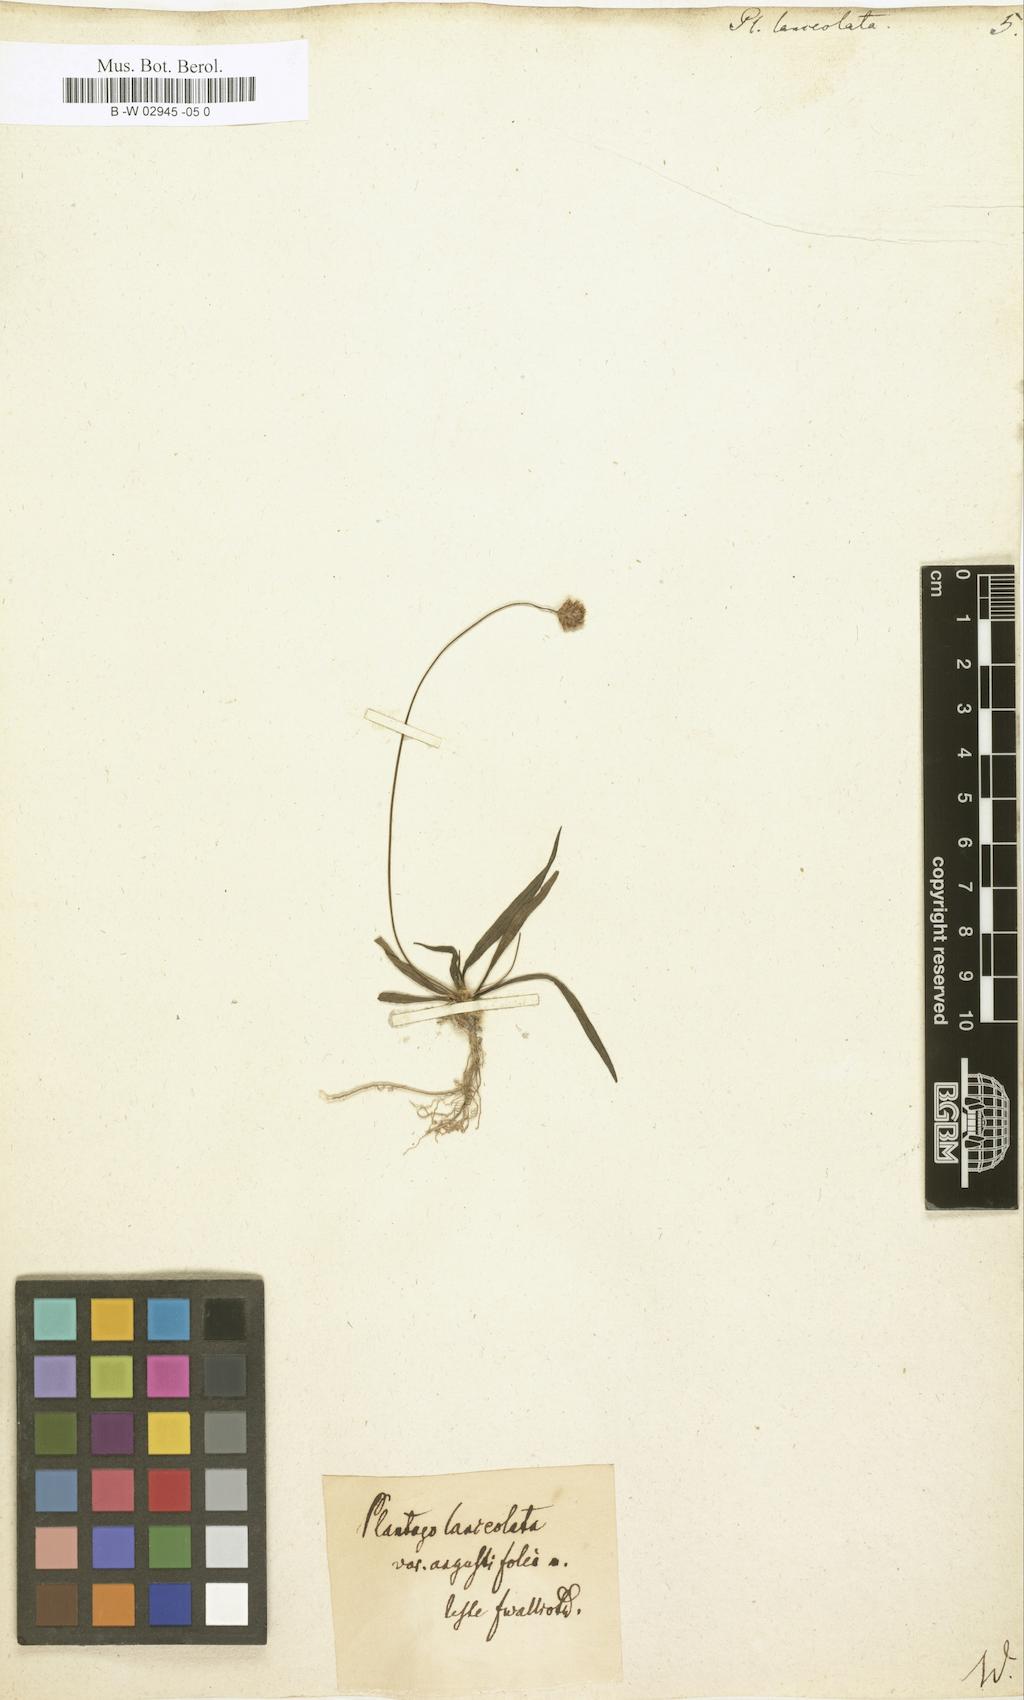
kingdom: Plantae
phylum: Tracheophyta
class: Magnoliopsida
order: Lamiales
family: Plantaginaceae
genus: Plantago
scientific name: Plantago lanceolata
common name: Ribwort plantain
